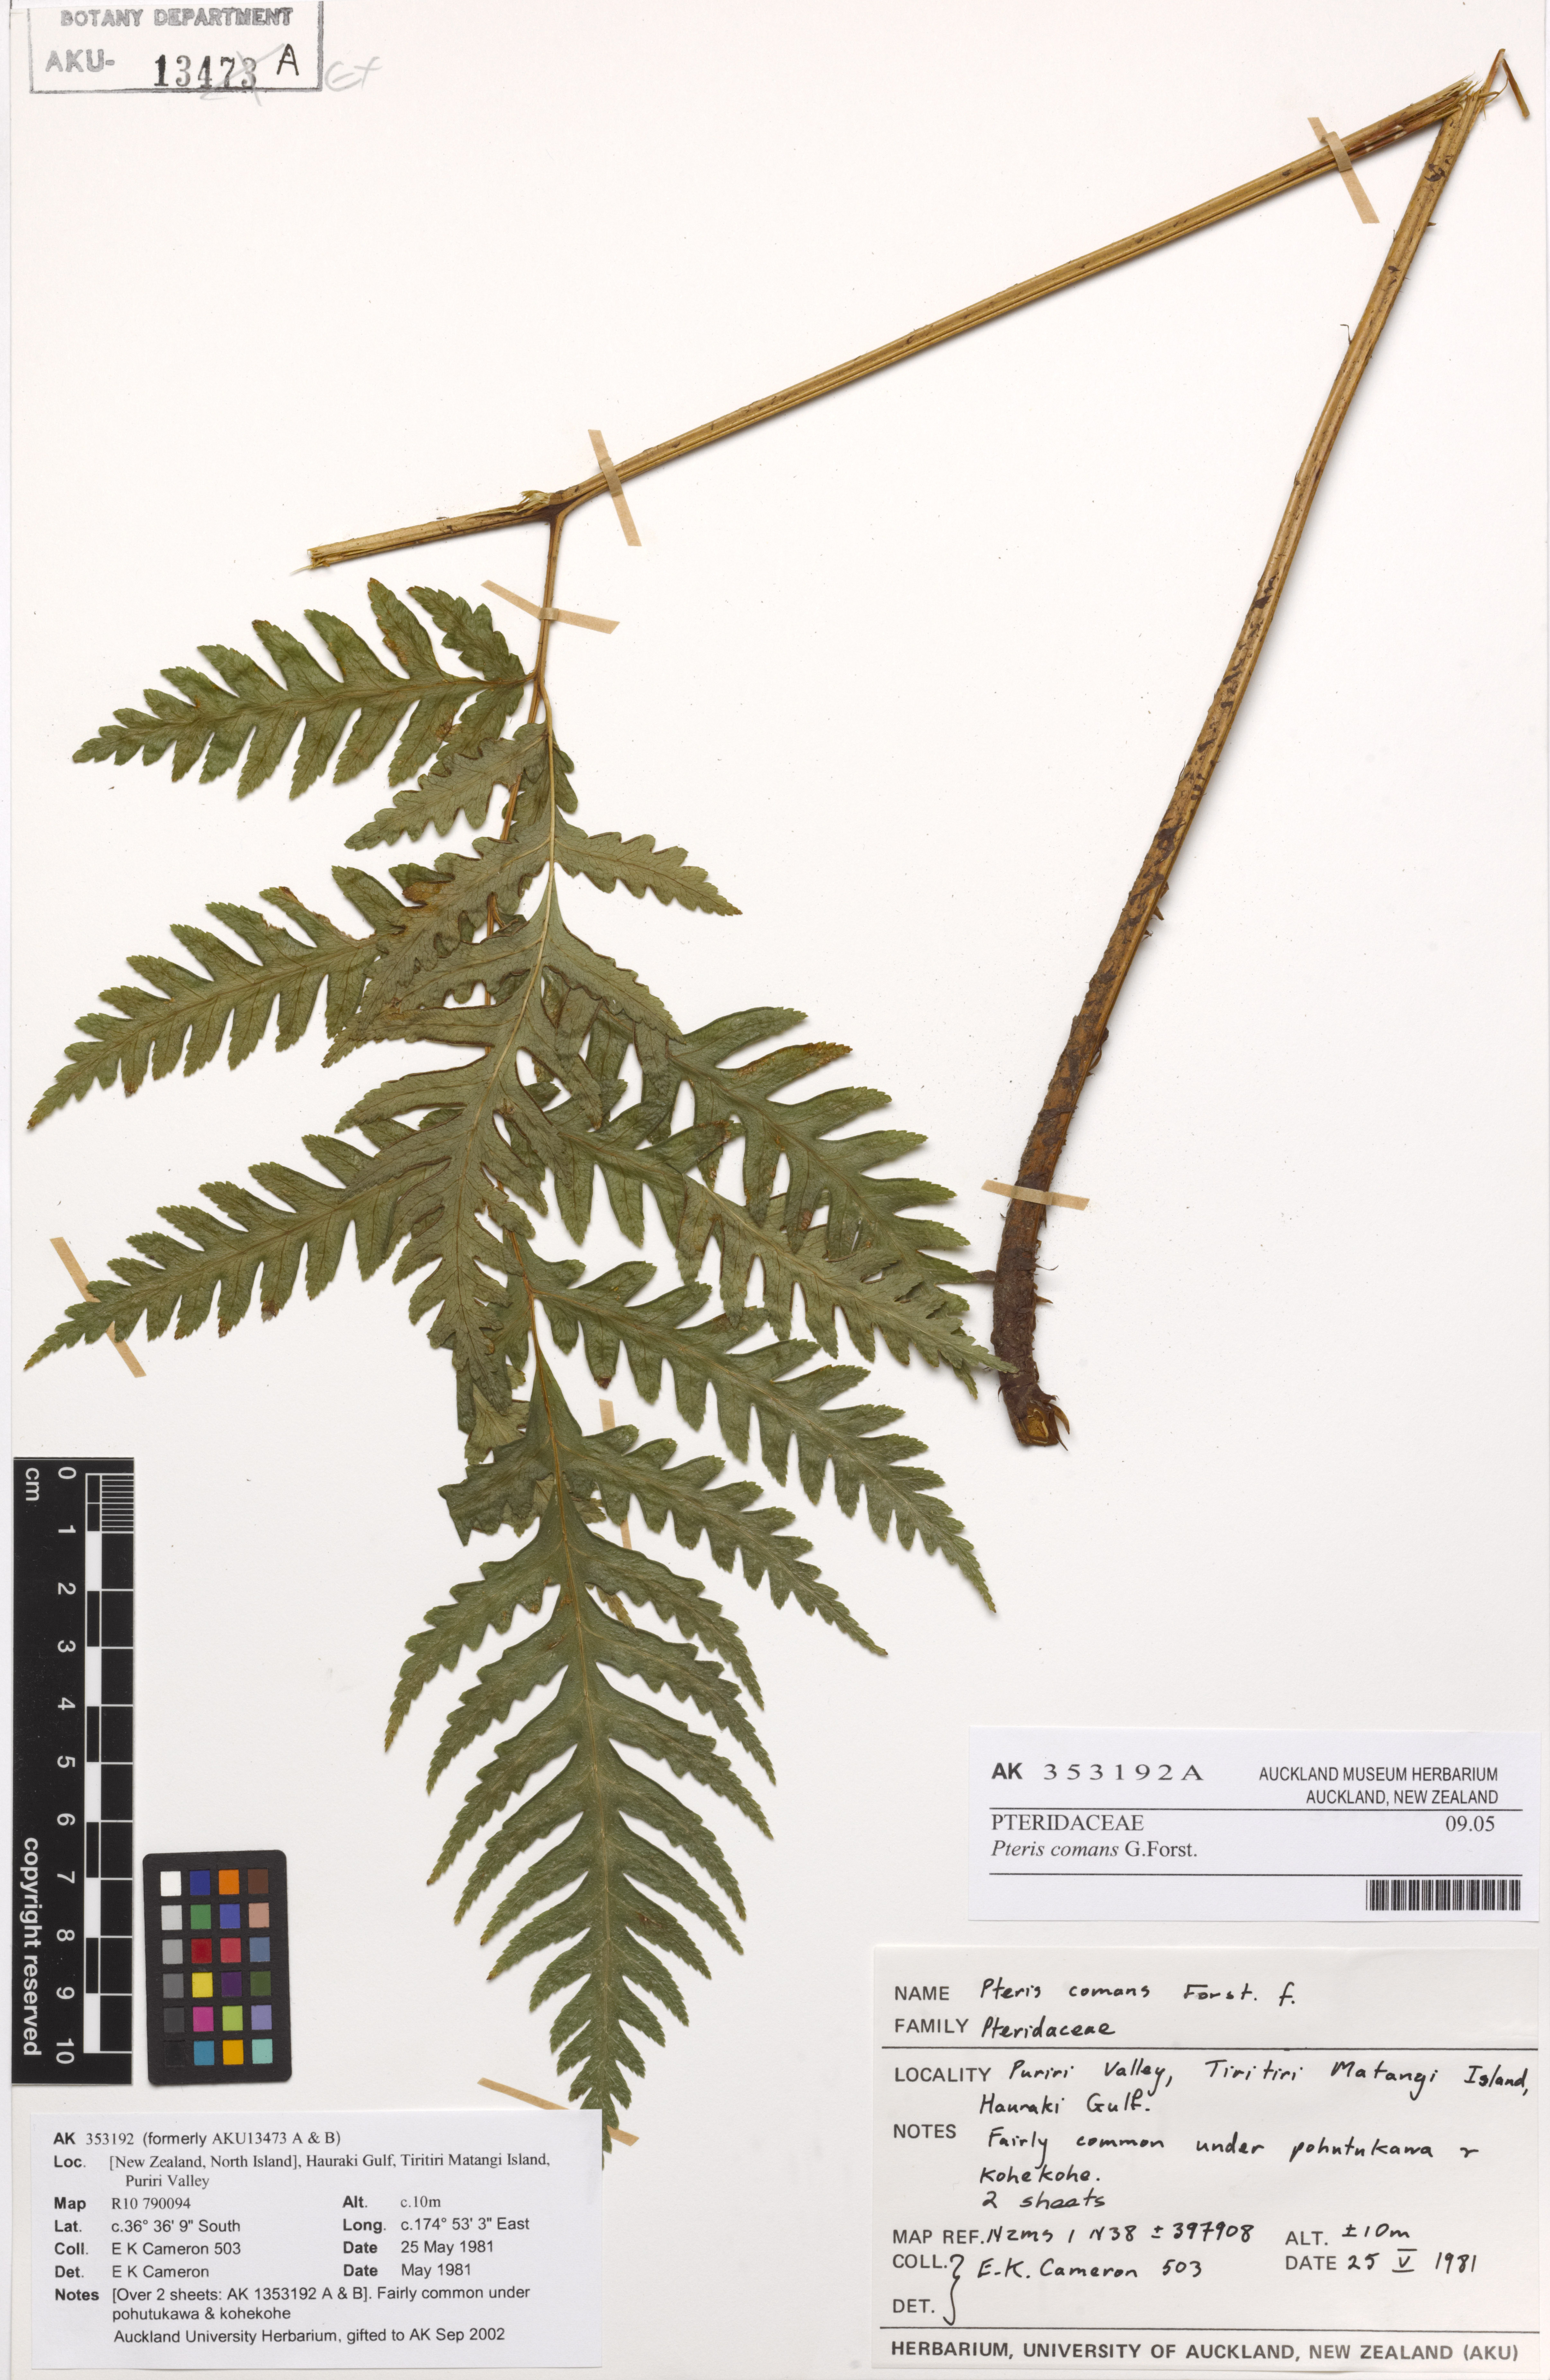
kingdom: Plantae
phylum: Tracheophyta
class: Polypodiopsida
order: Polypodiales
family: Pteridaceae
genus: Pteris
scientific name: Pteris comans
